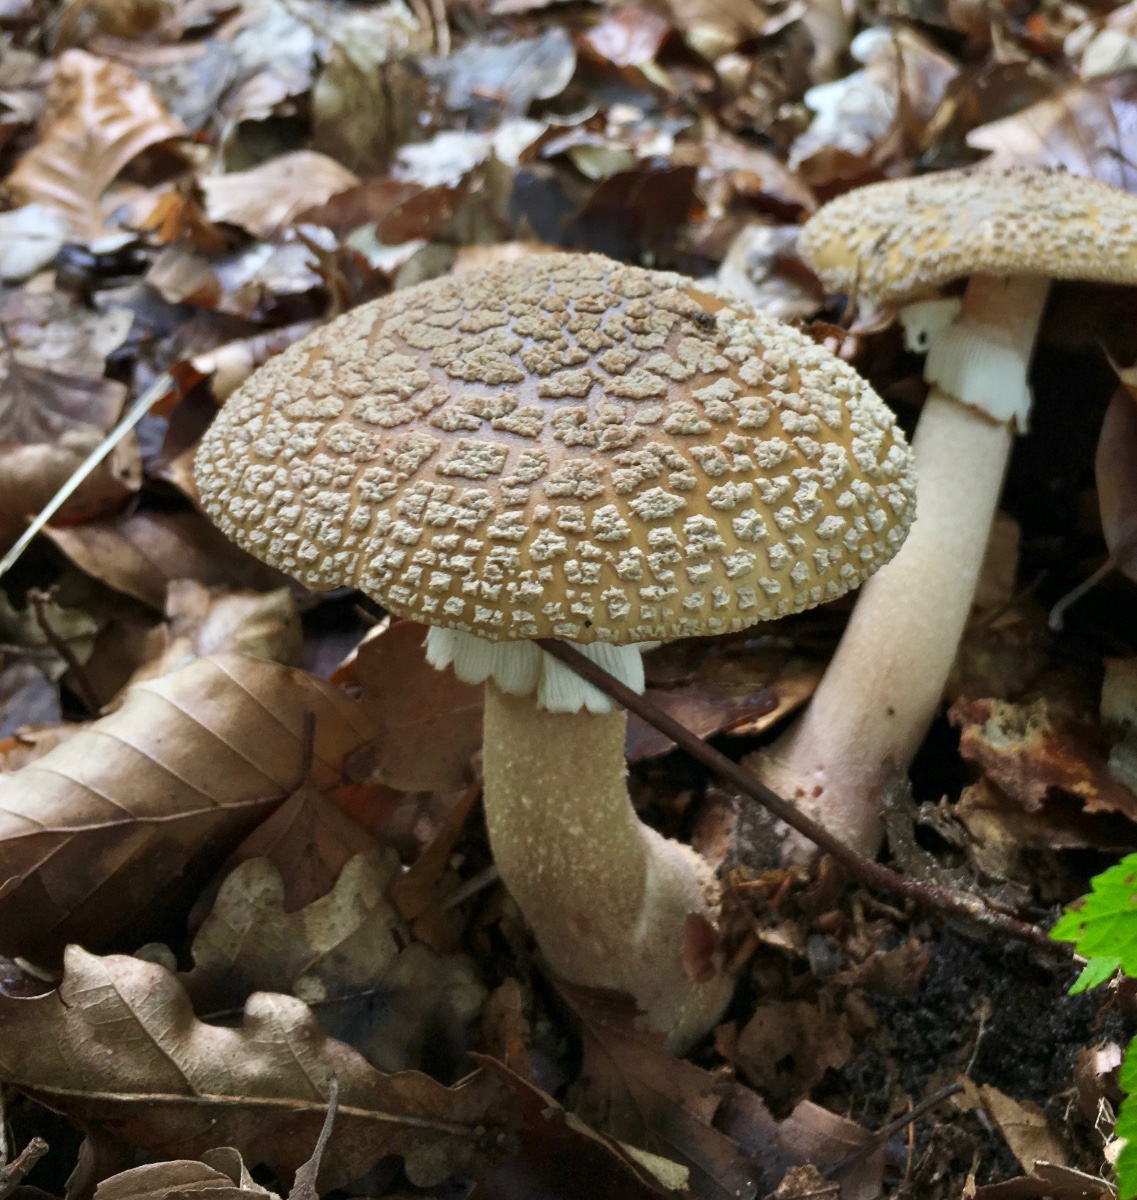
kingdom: Fungi
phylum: Basidiomycota
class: Agaricomycetes
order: Agaricales
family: Amanitaceae
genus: Amanita
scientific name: Amanita rubescens
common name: rødmende fluesvamp
